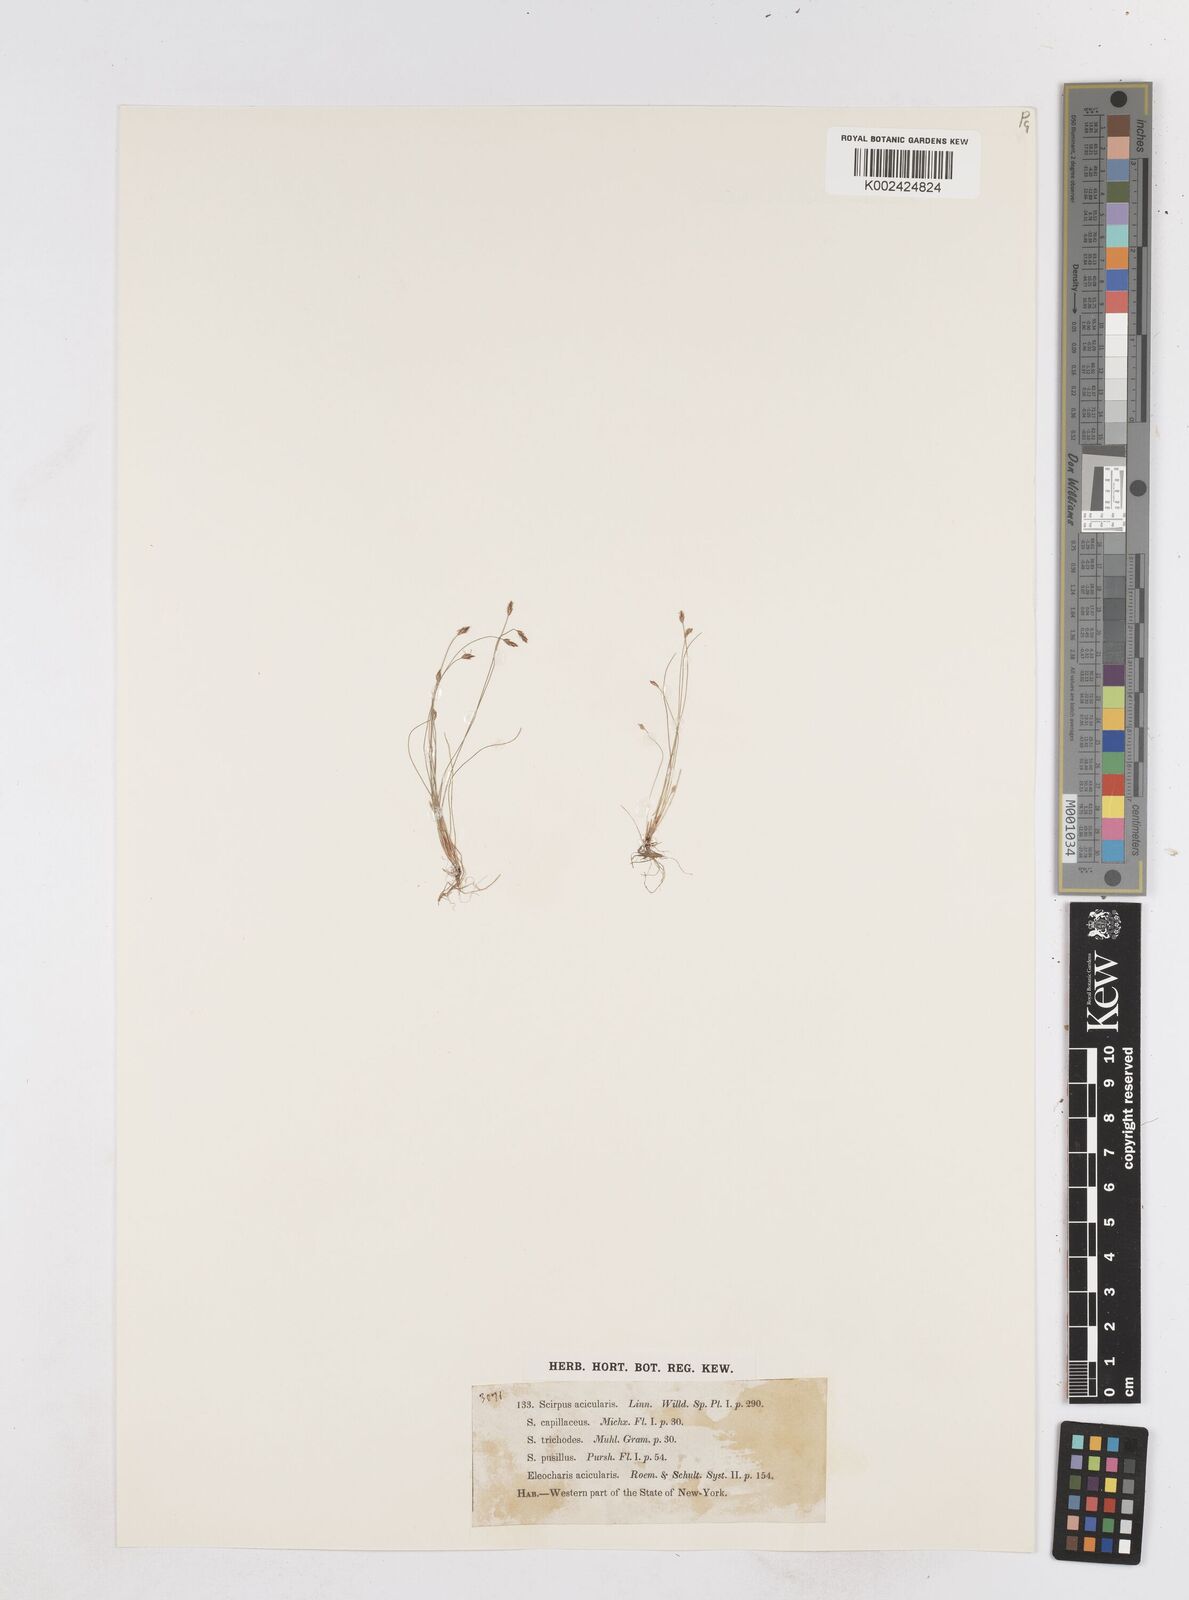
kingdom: Plantae
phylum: Tracheophyta
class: Liliopsida
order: Poales
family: Cyperaceae
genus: Eleocharis
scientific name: Eleocharis acicularis
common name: Needle spike-rush
